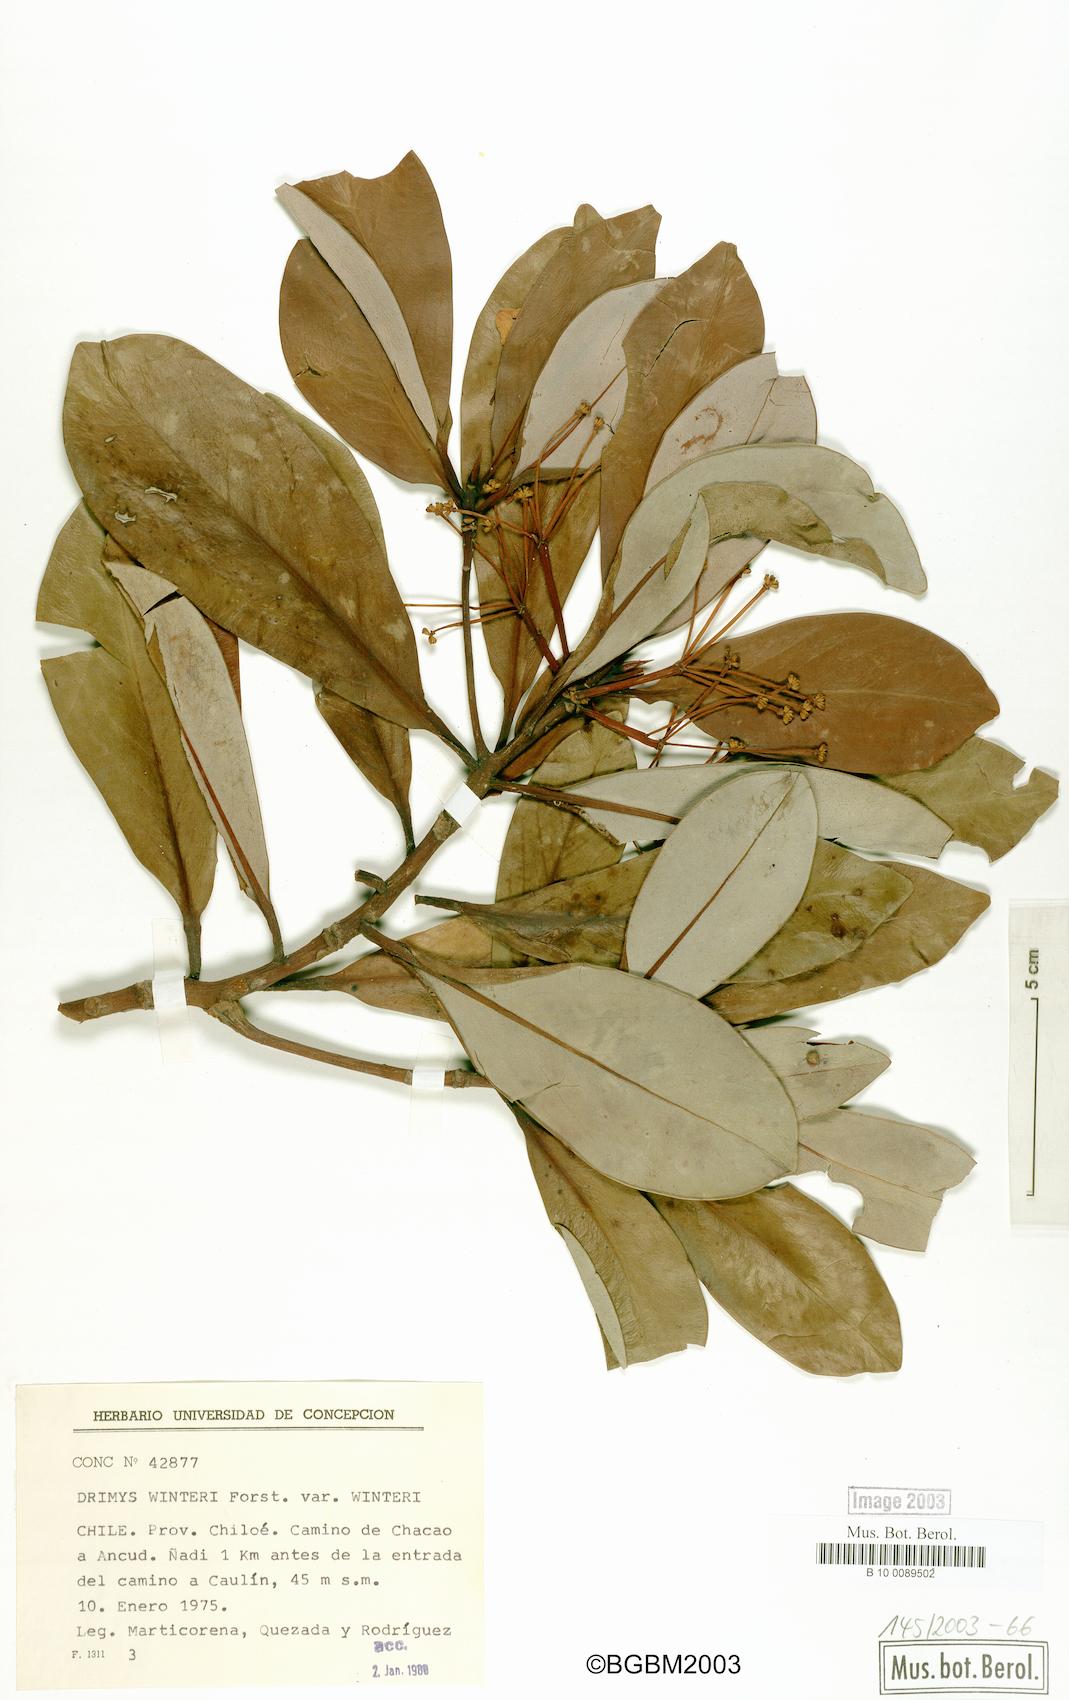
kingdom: Plantae
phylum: Tracheophyta
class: Magnoliopsida
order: Canellales
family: Winteraceae
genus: Drimys
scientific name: Drimys winteri
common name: Winter's-bark
